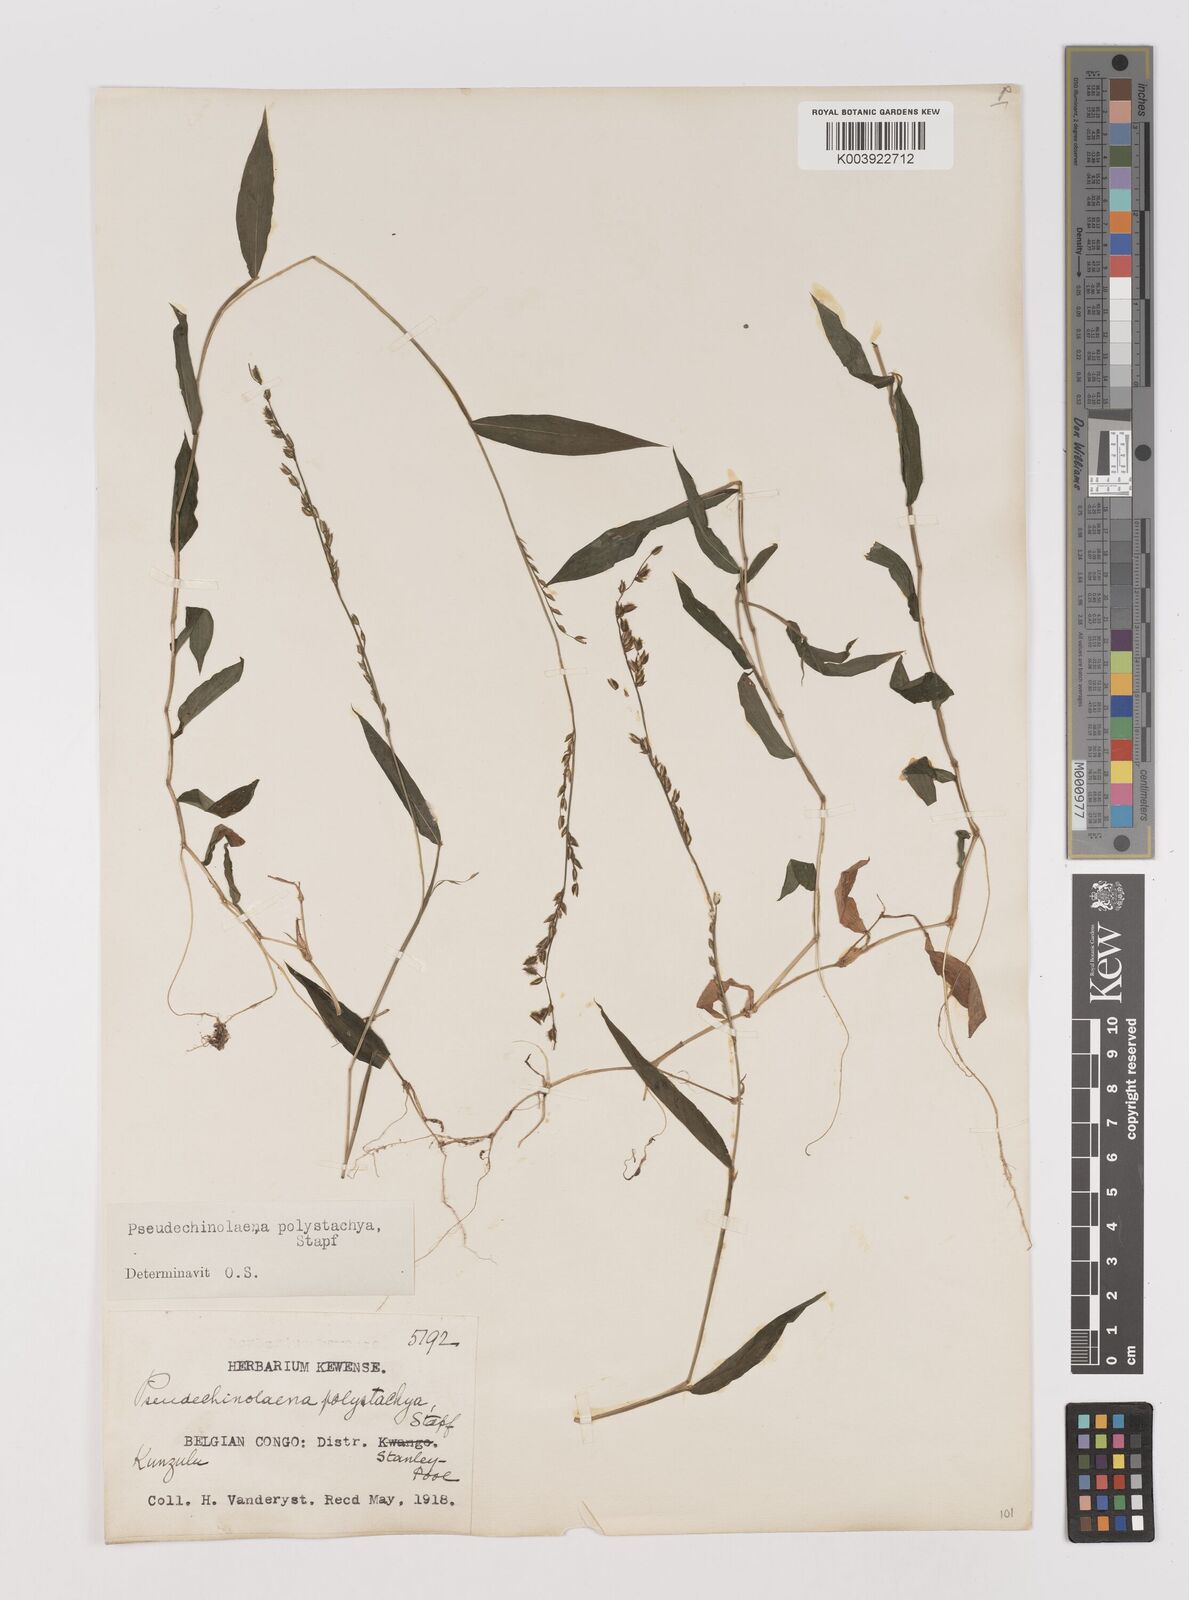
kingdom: Plantae
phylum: Tracheophyta
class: Liliopsida
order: Poales
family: Poaceae
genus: Pseudechinolaena
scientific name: Pseudechinolaena polystachya
